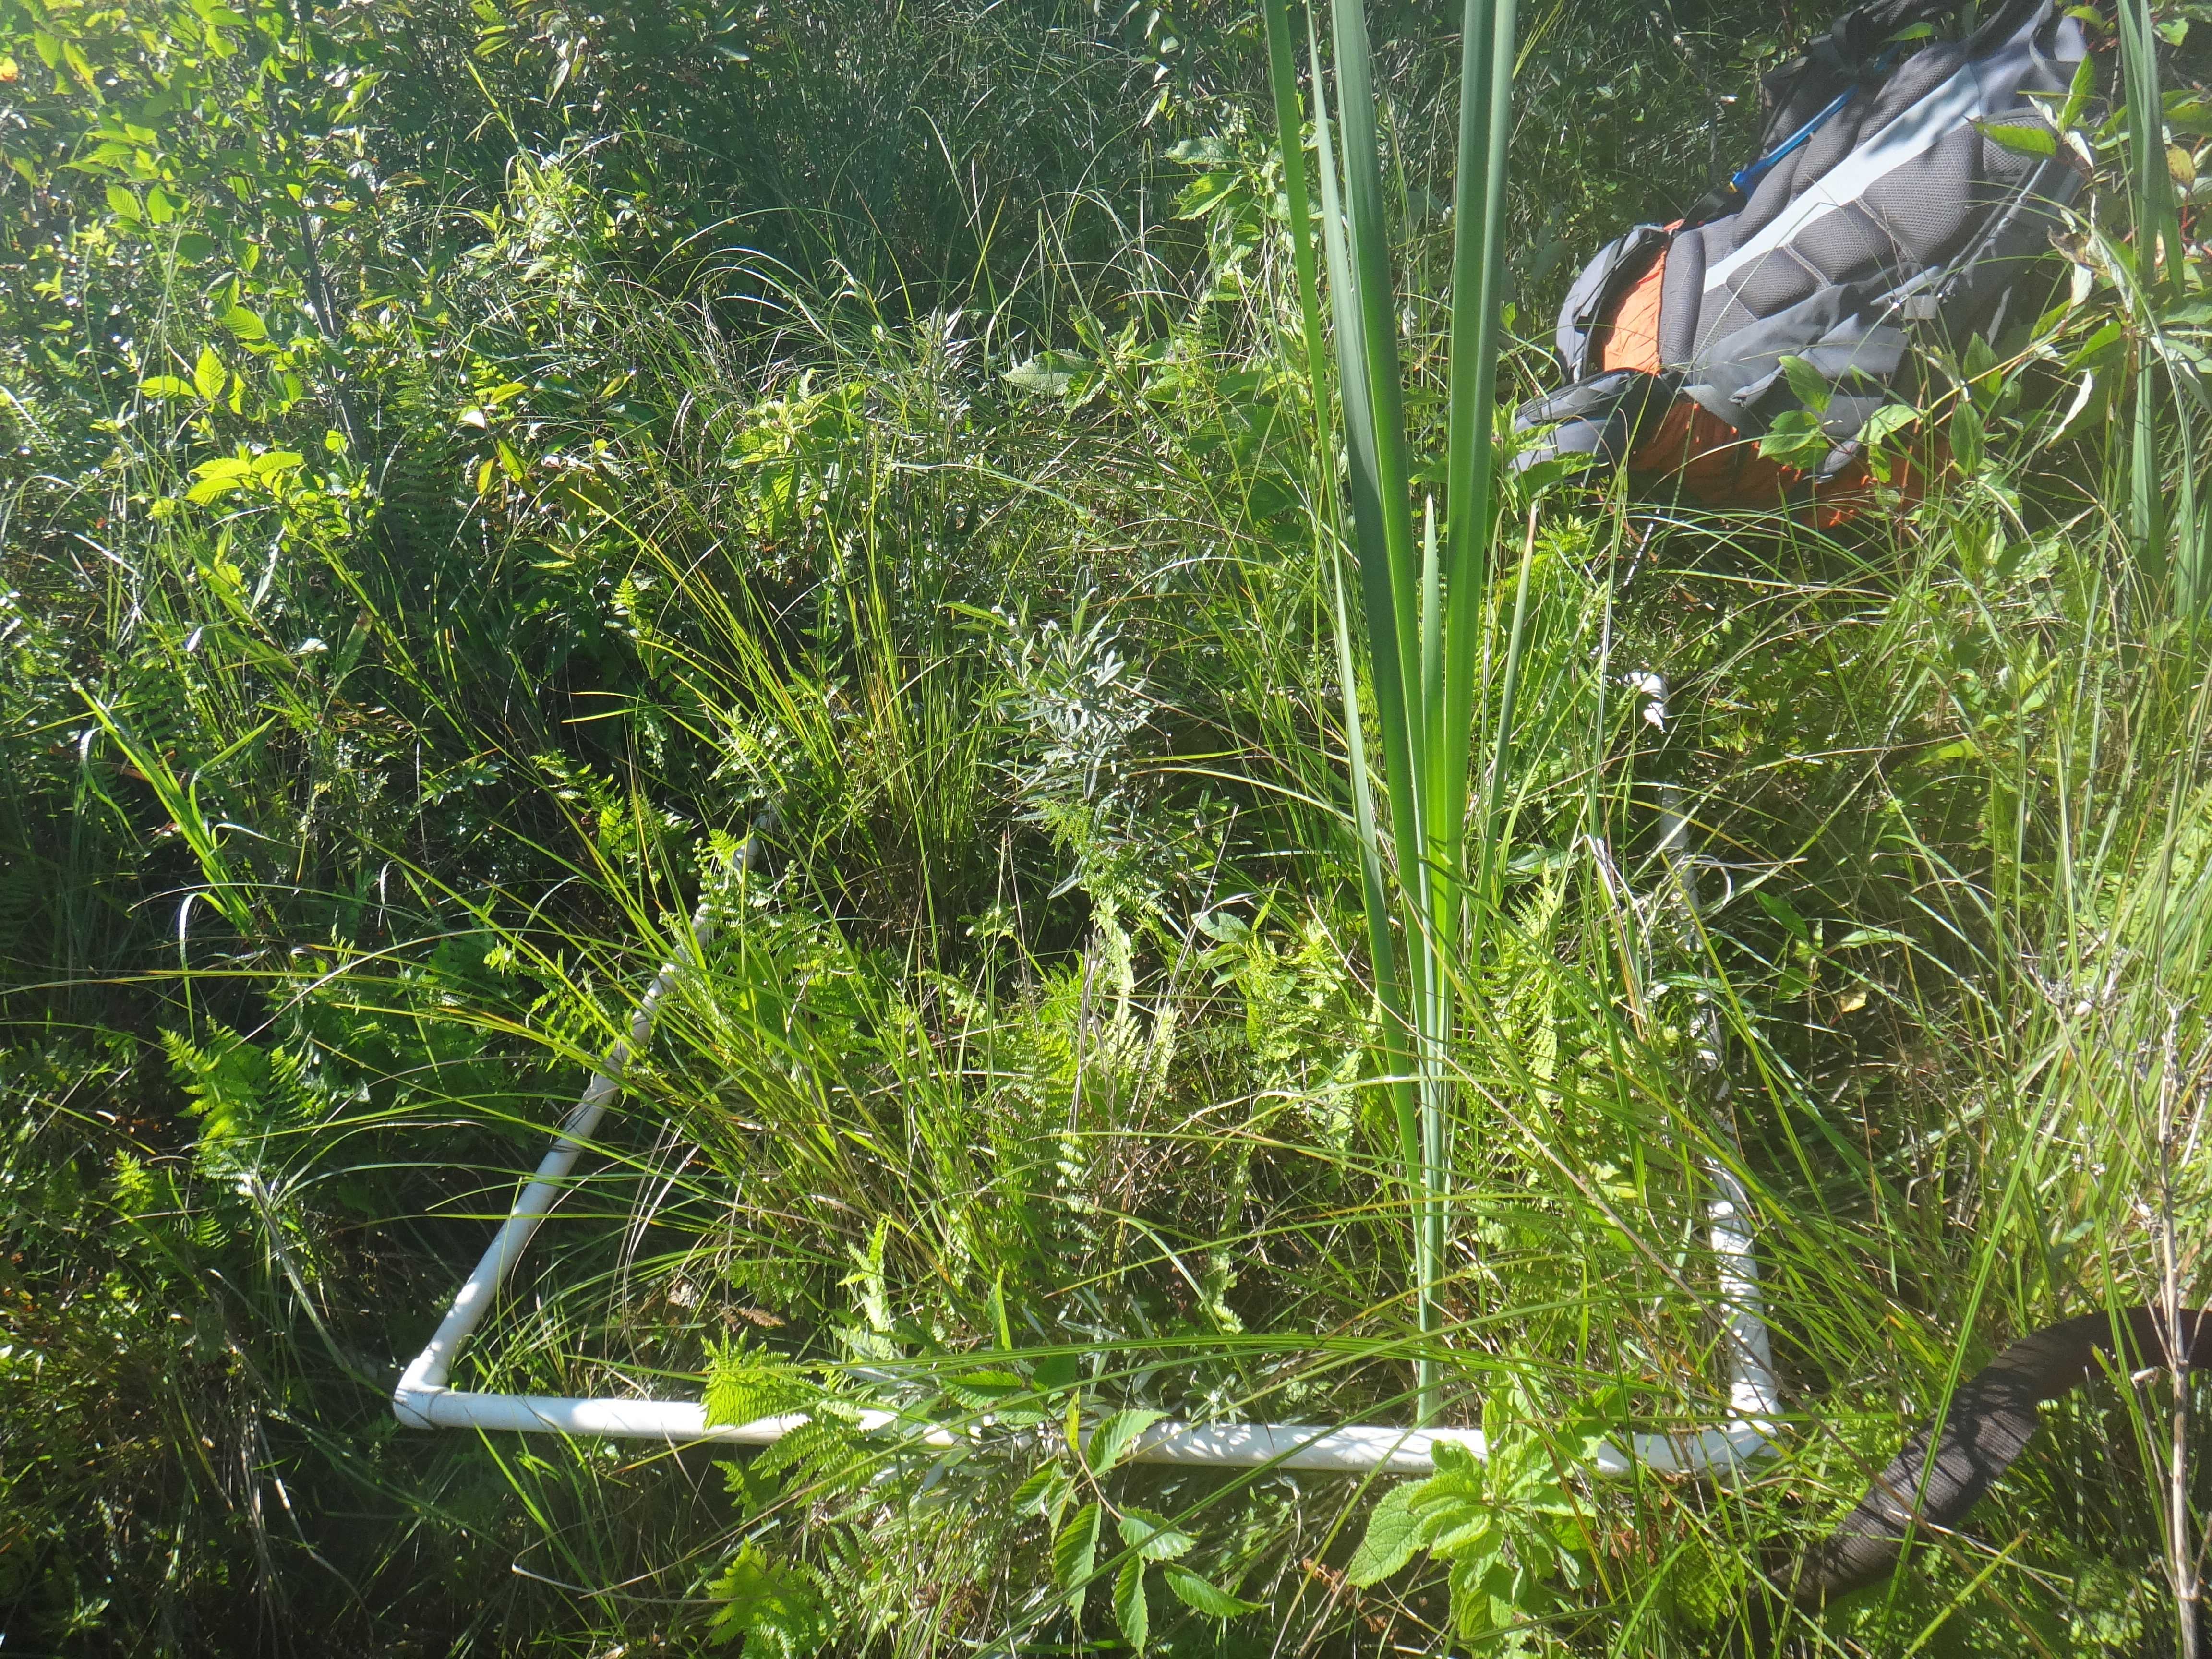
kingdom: Plantae
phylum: Tracheophyta
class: Magnoliopsida
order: Asterales
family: Campanulaceae
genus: Palustricodon
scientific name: Palustricodon aparinoides
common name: Bedstraw bellflower
